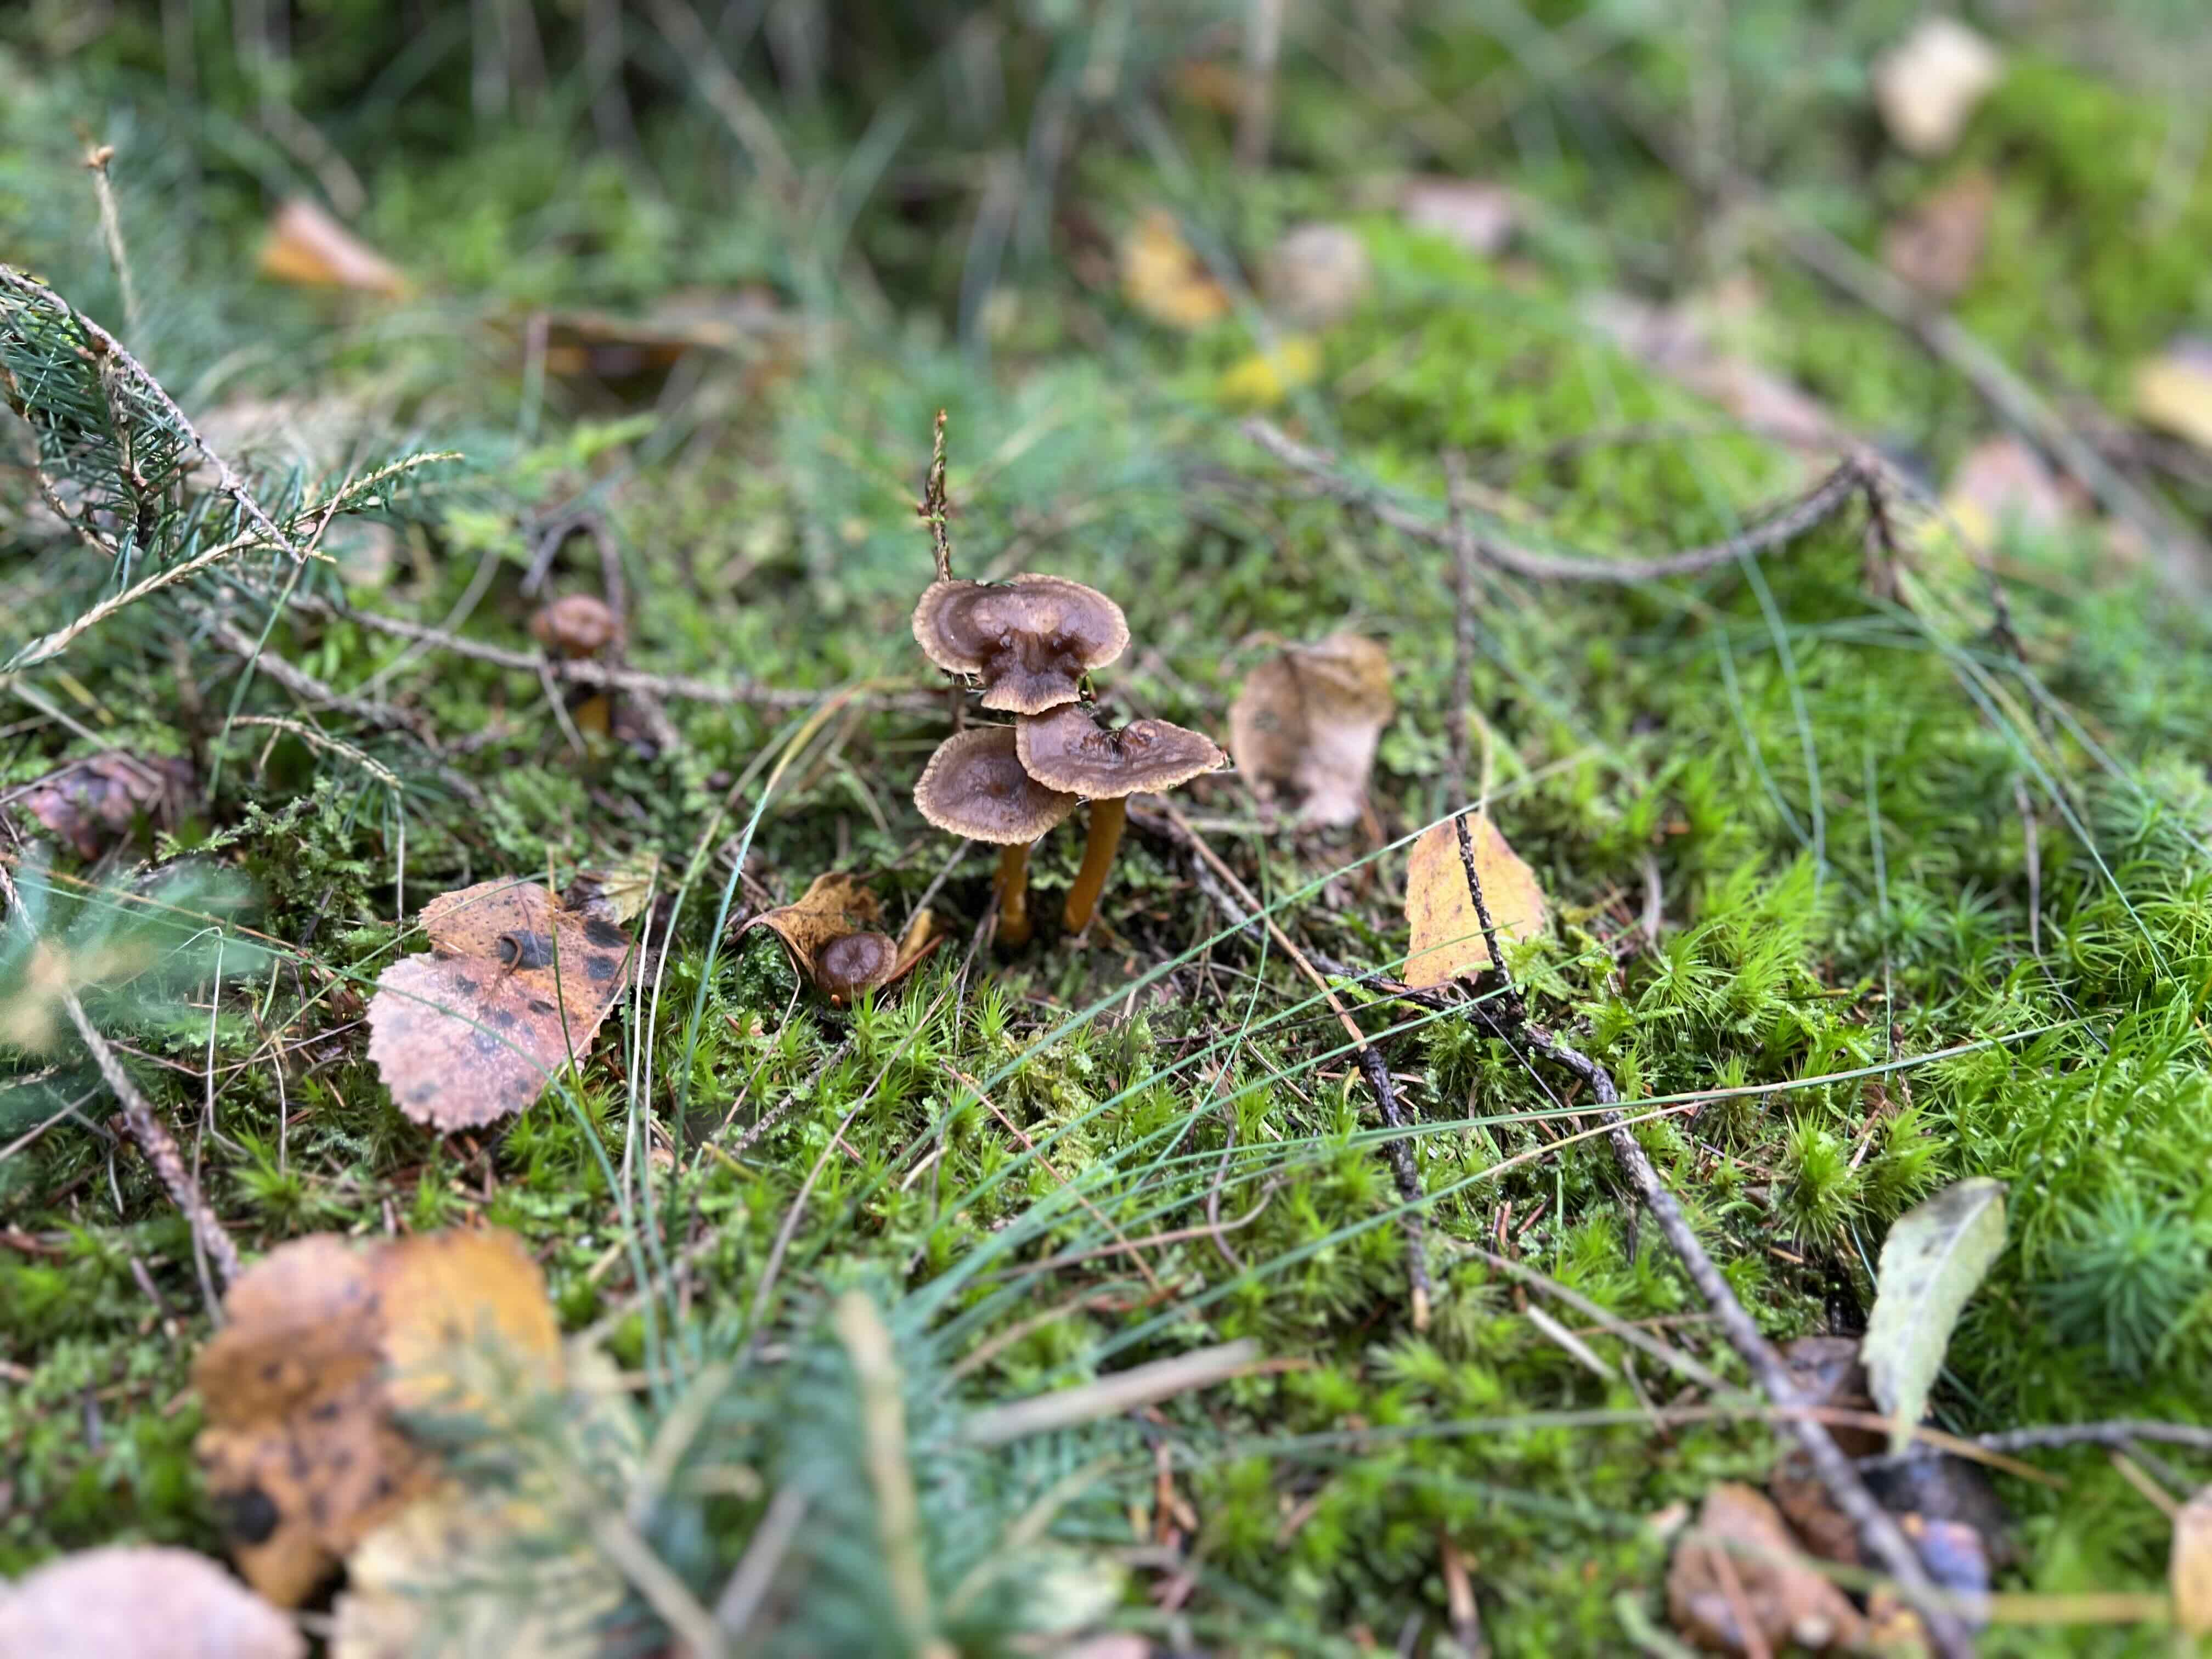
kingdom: Fungi
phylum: Basidiomycota
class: Agaricomycetes
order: Cantharellales
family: Hydnaceae
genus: Craterellus
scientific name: Craterellus tubaeformis
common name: tragt-kantarel
